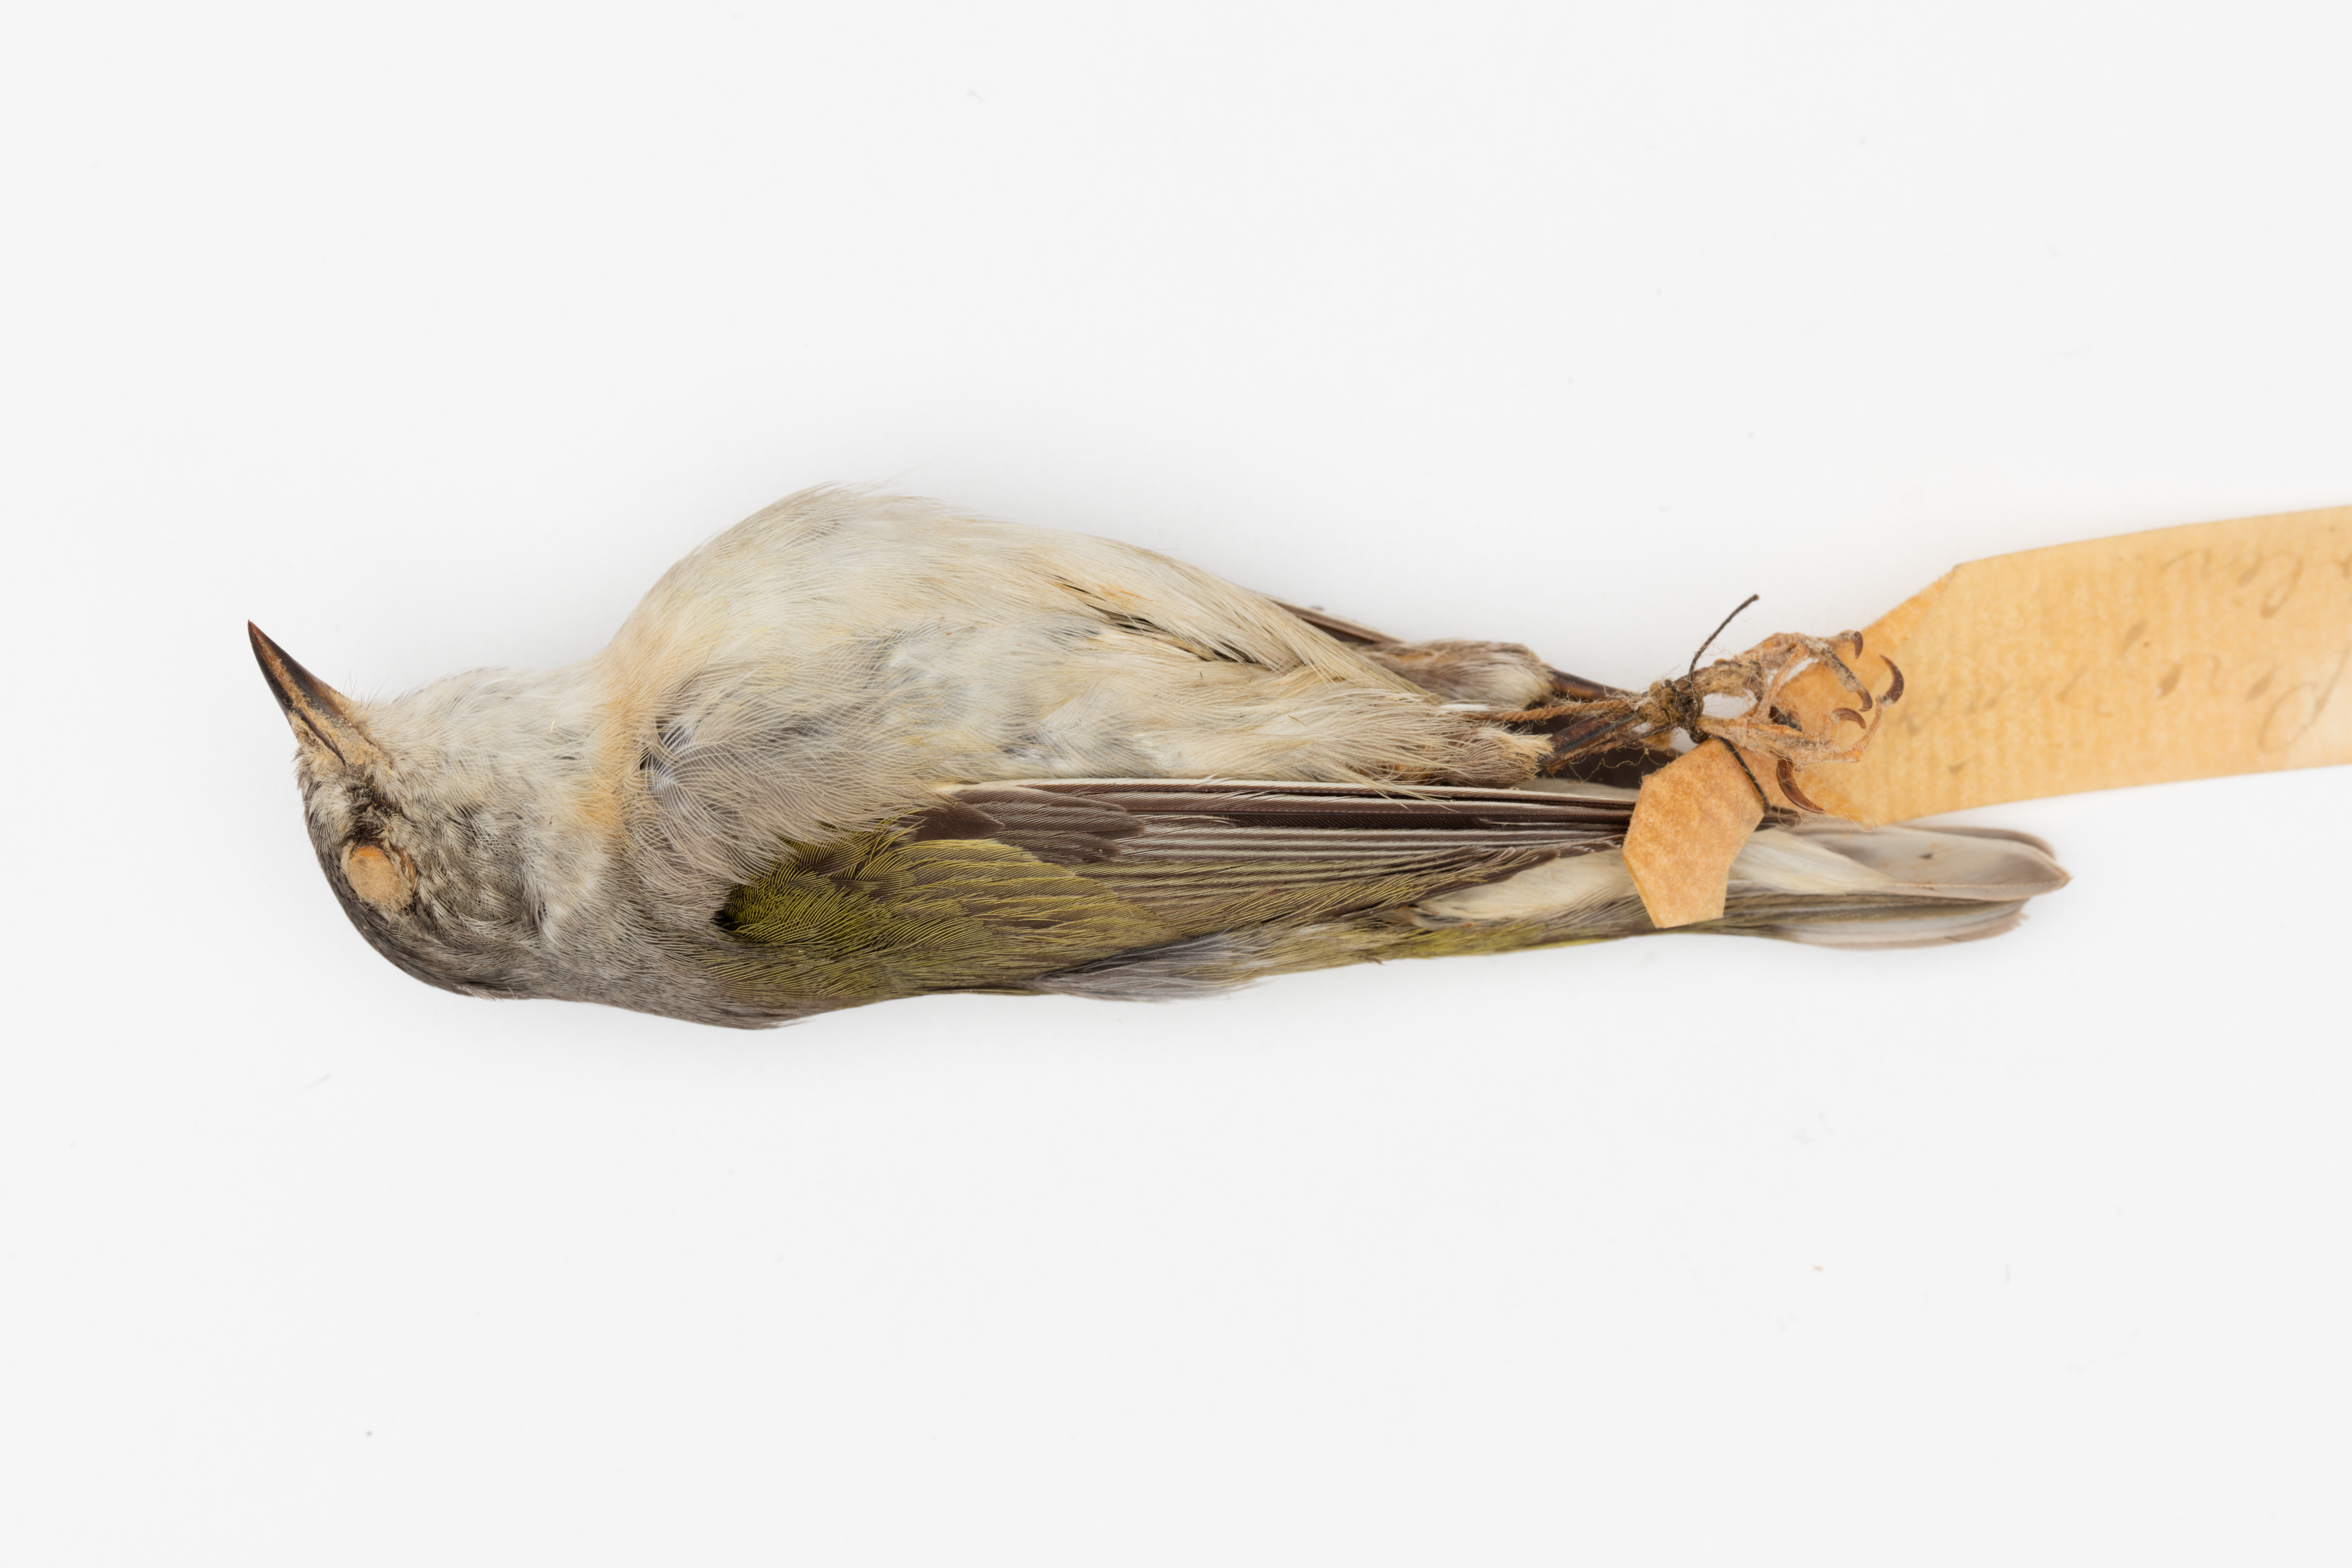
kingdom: Animalia
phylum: Chordata
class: Aves
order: Passeriformes
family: Parulidae
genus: Leiothlypis
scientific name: Leiothlypis peregrina
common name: Tennessee warbler
